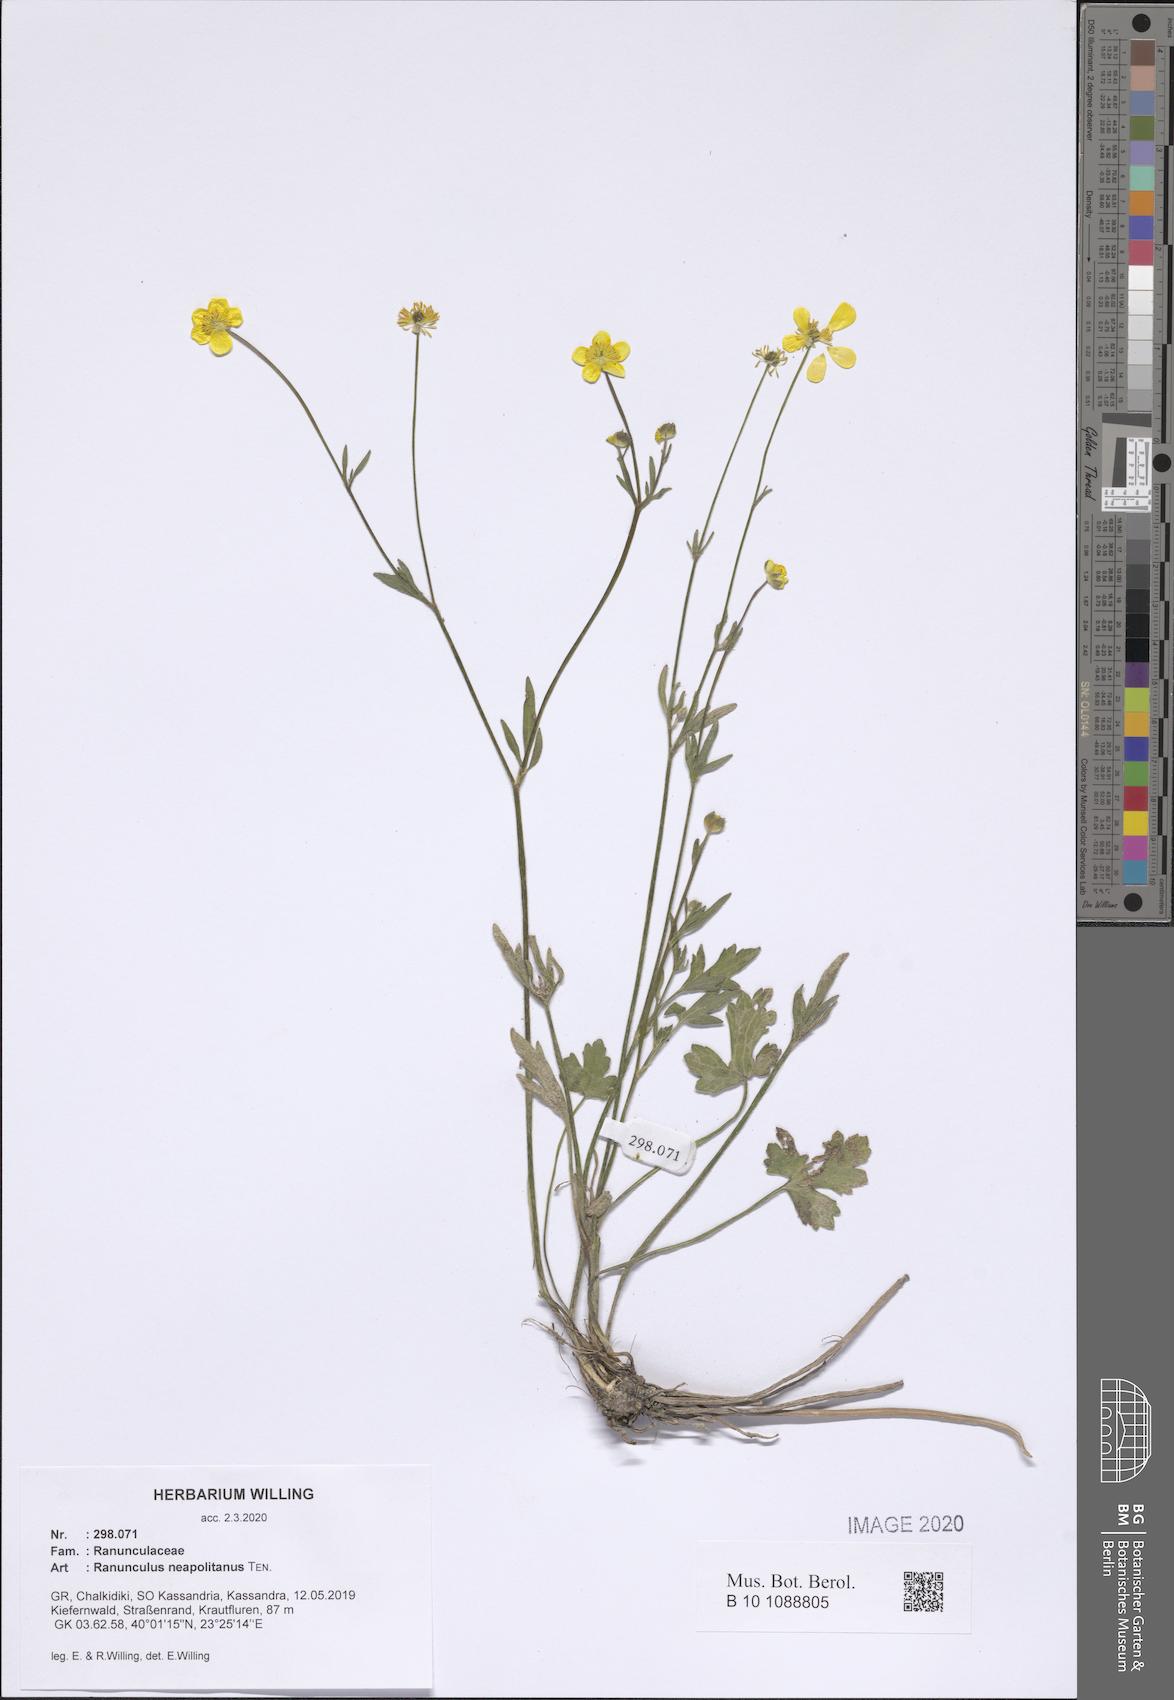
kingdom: Plantae
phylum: Tracheophyta
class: Magnoliopsida
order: Ranunculales
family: Ranunculaceae
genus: Ranunculus
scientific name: Ranunculus neapolitanus
